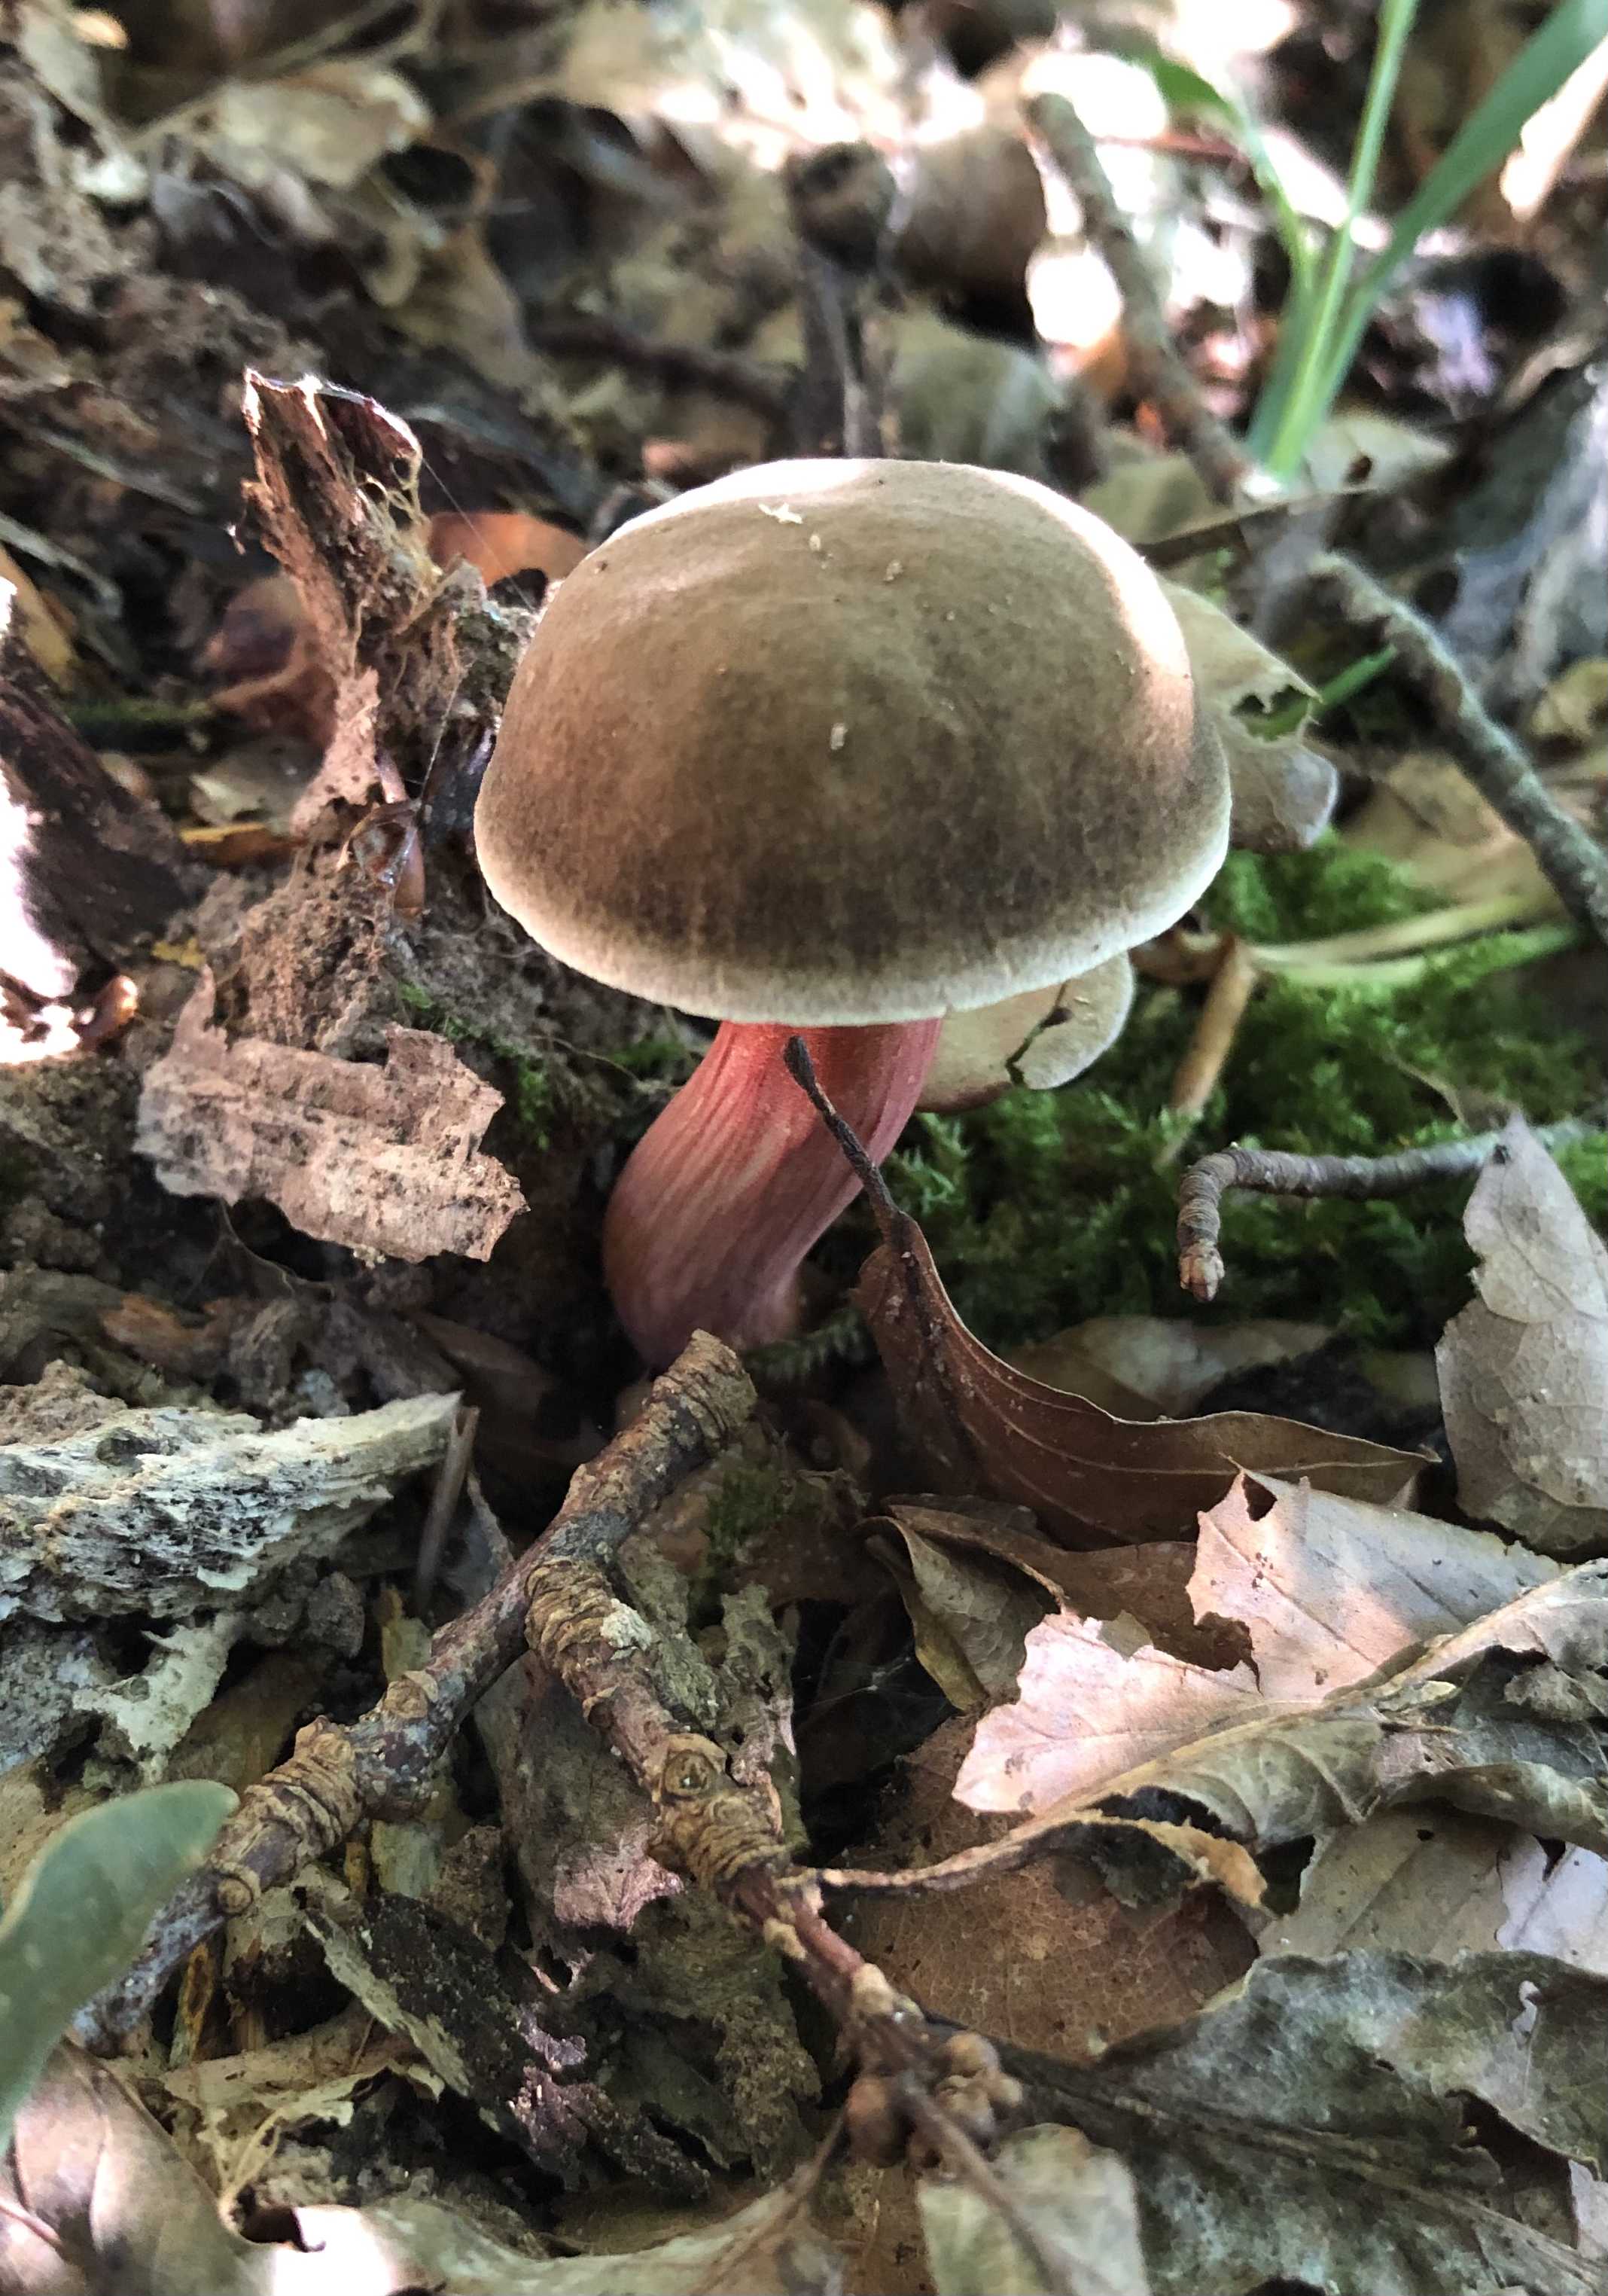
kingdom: Fungi
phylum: Basidiomycota
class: Agaricomycetes
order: Boletales
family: Boletaceae
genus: Xerocomellus
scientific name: Xerocomellus pruinatus
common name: dugget rørhat
